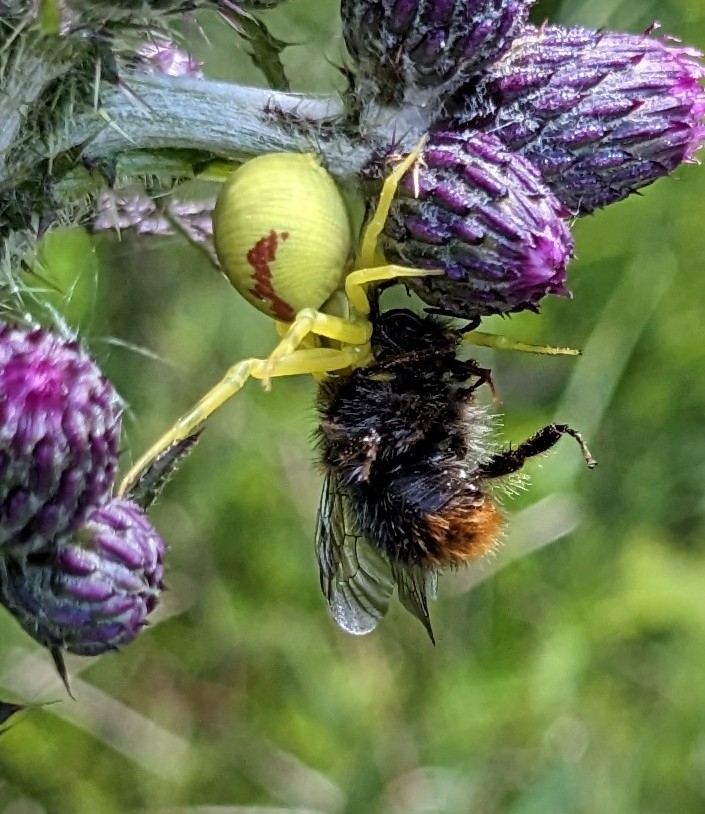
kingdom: Animalia
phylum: Arthropoda
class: Arachnida
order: Araneae
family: Thomisidae
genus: Misumena
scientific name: Misumena vatia
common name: Kamæleonedderkop
